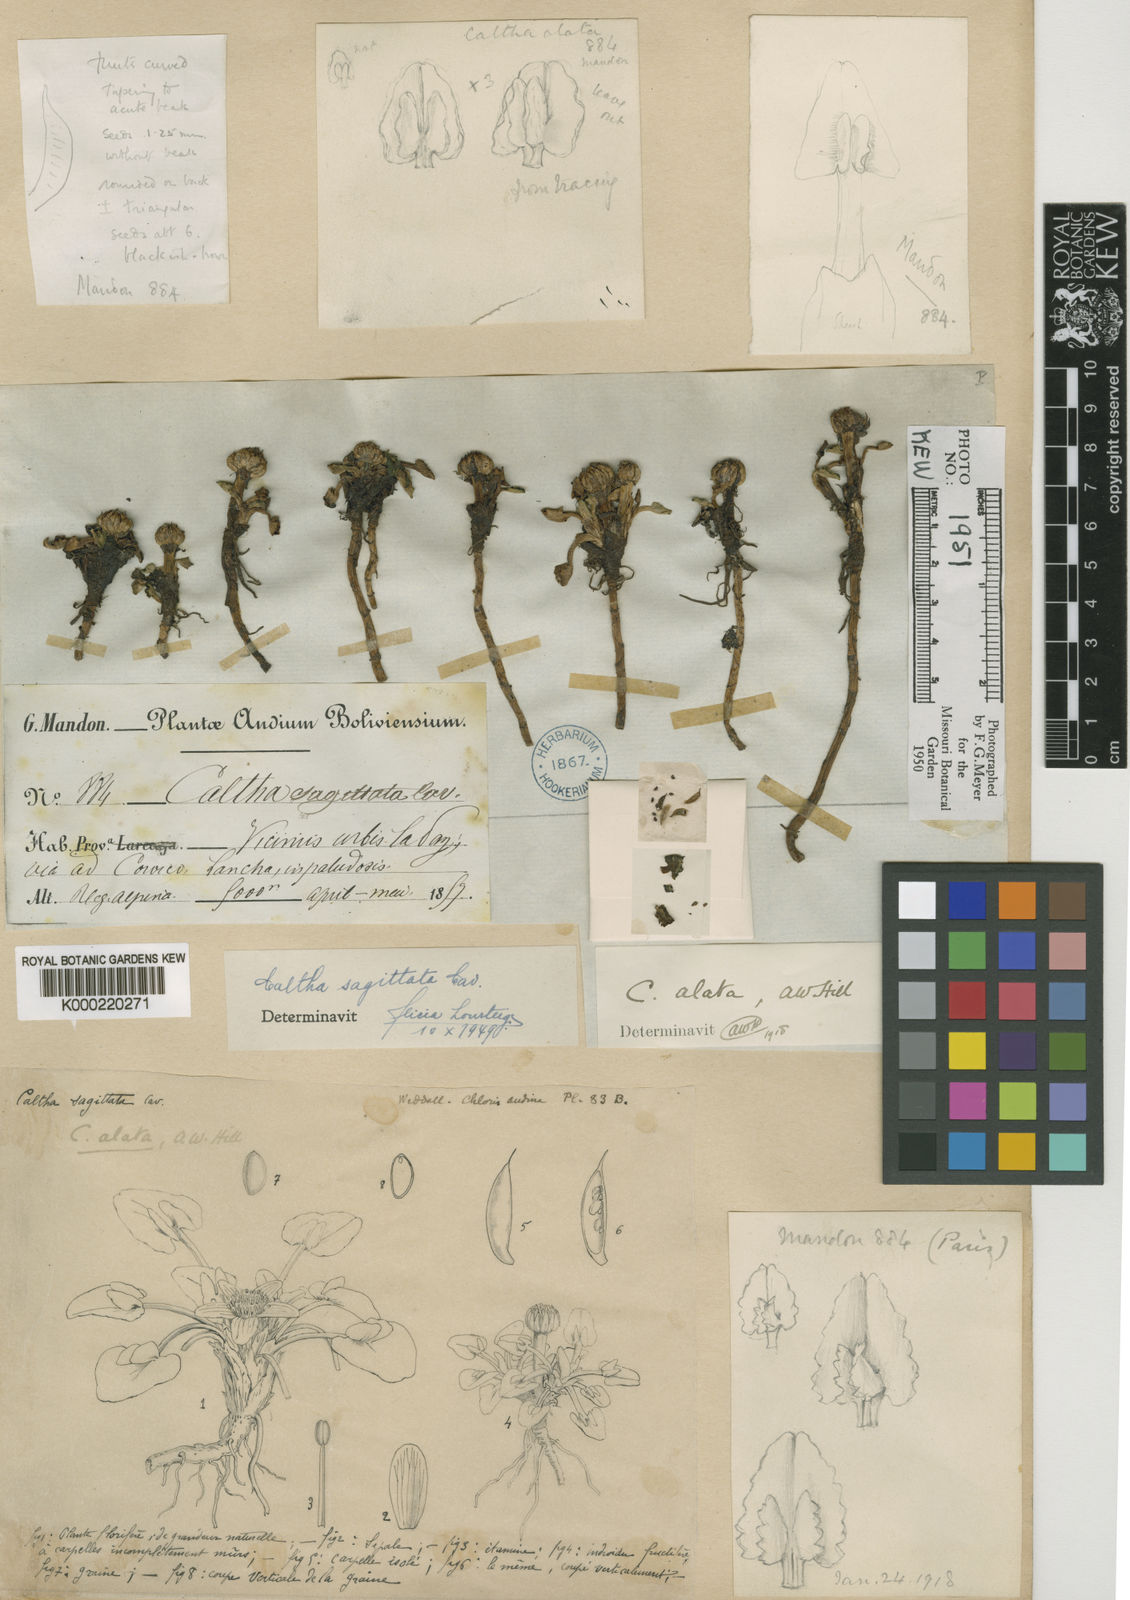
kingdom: Plantae
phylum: Tracheophyta
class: Magnoliopsida
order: Ranunculales
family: Ranunculaceae
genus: Caltha
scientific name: Caltha sagittata
